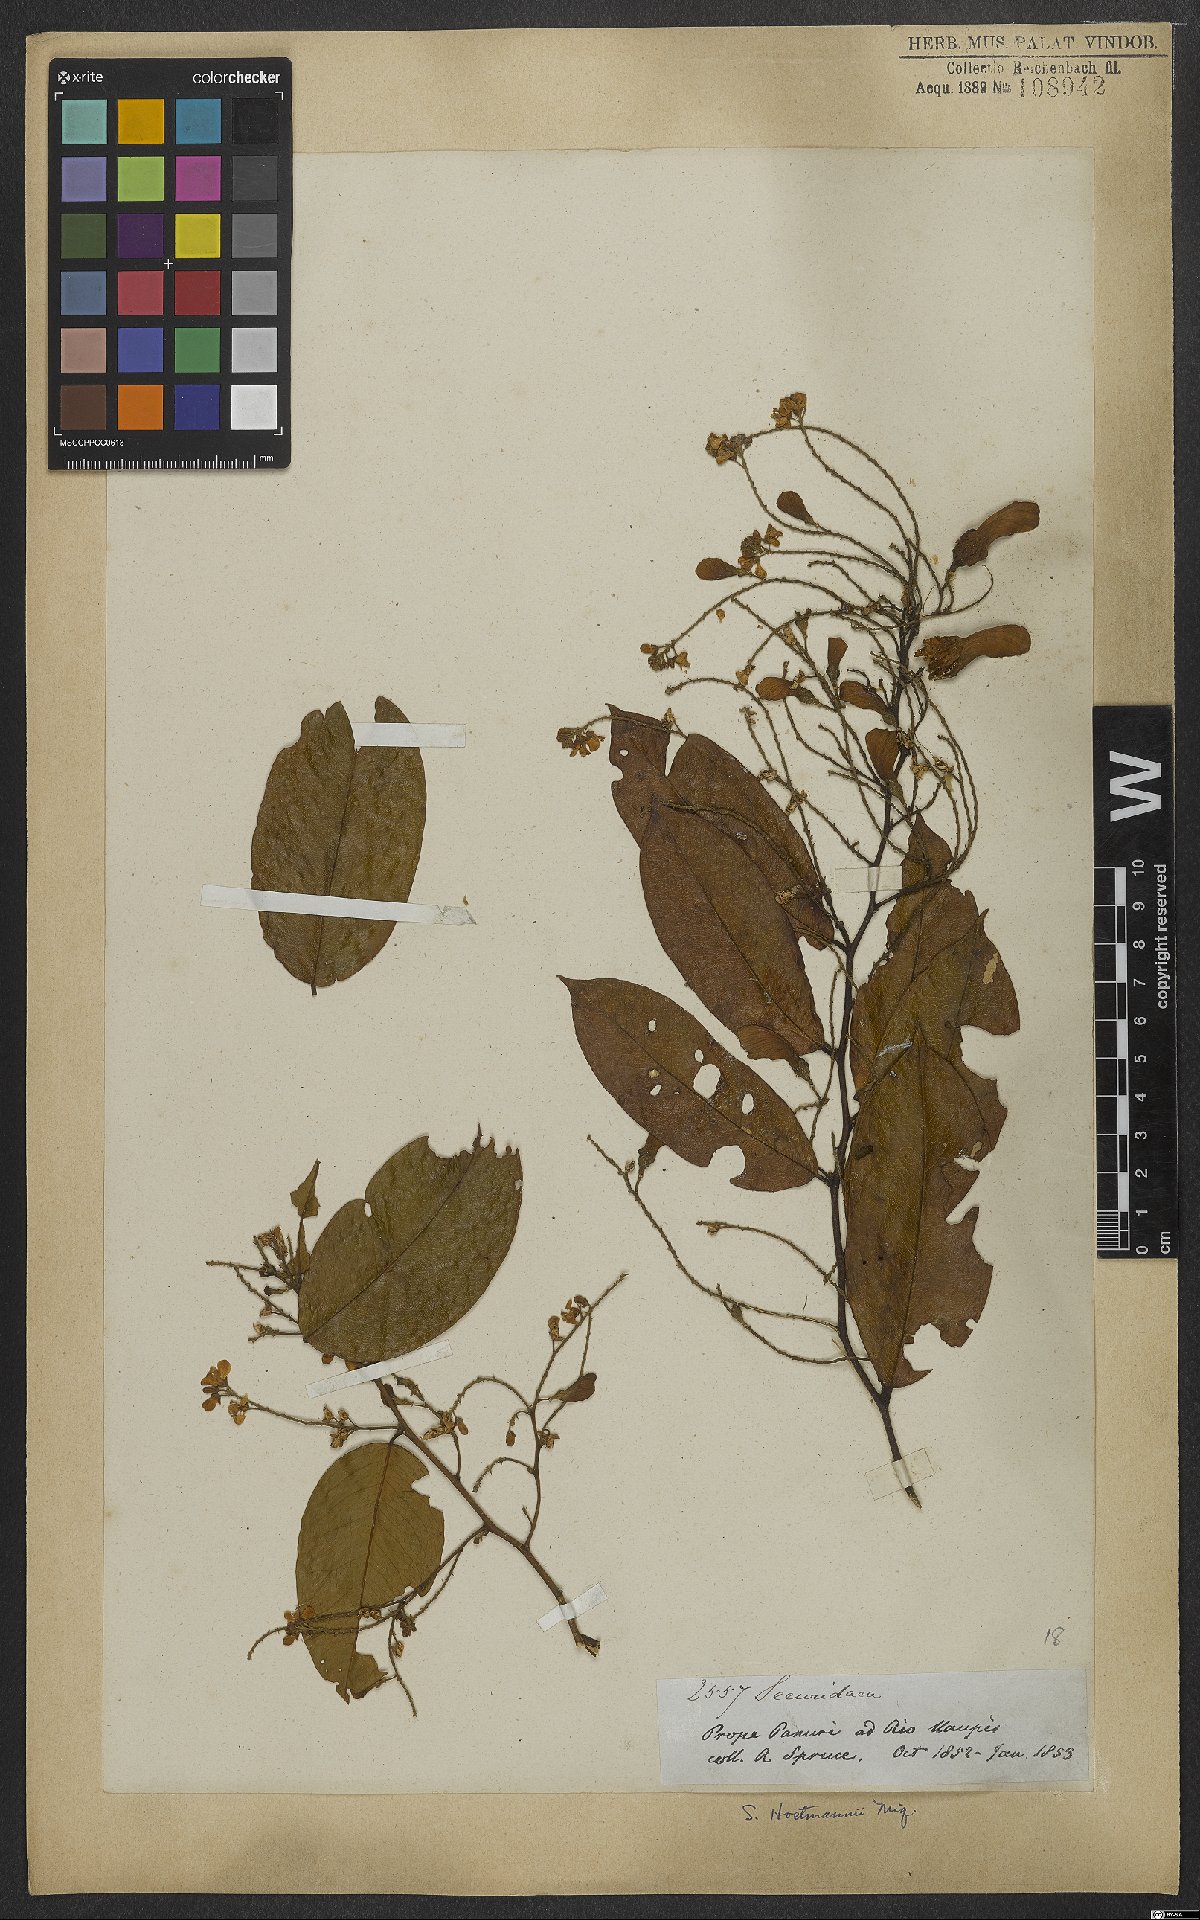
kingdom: Plantae
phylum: Tracheophyta
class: Magnoliopsida
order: Fabales
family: Polygalaceae
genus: Securidaca
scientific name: Securidaca paniculata
